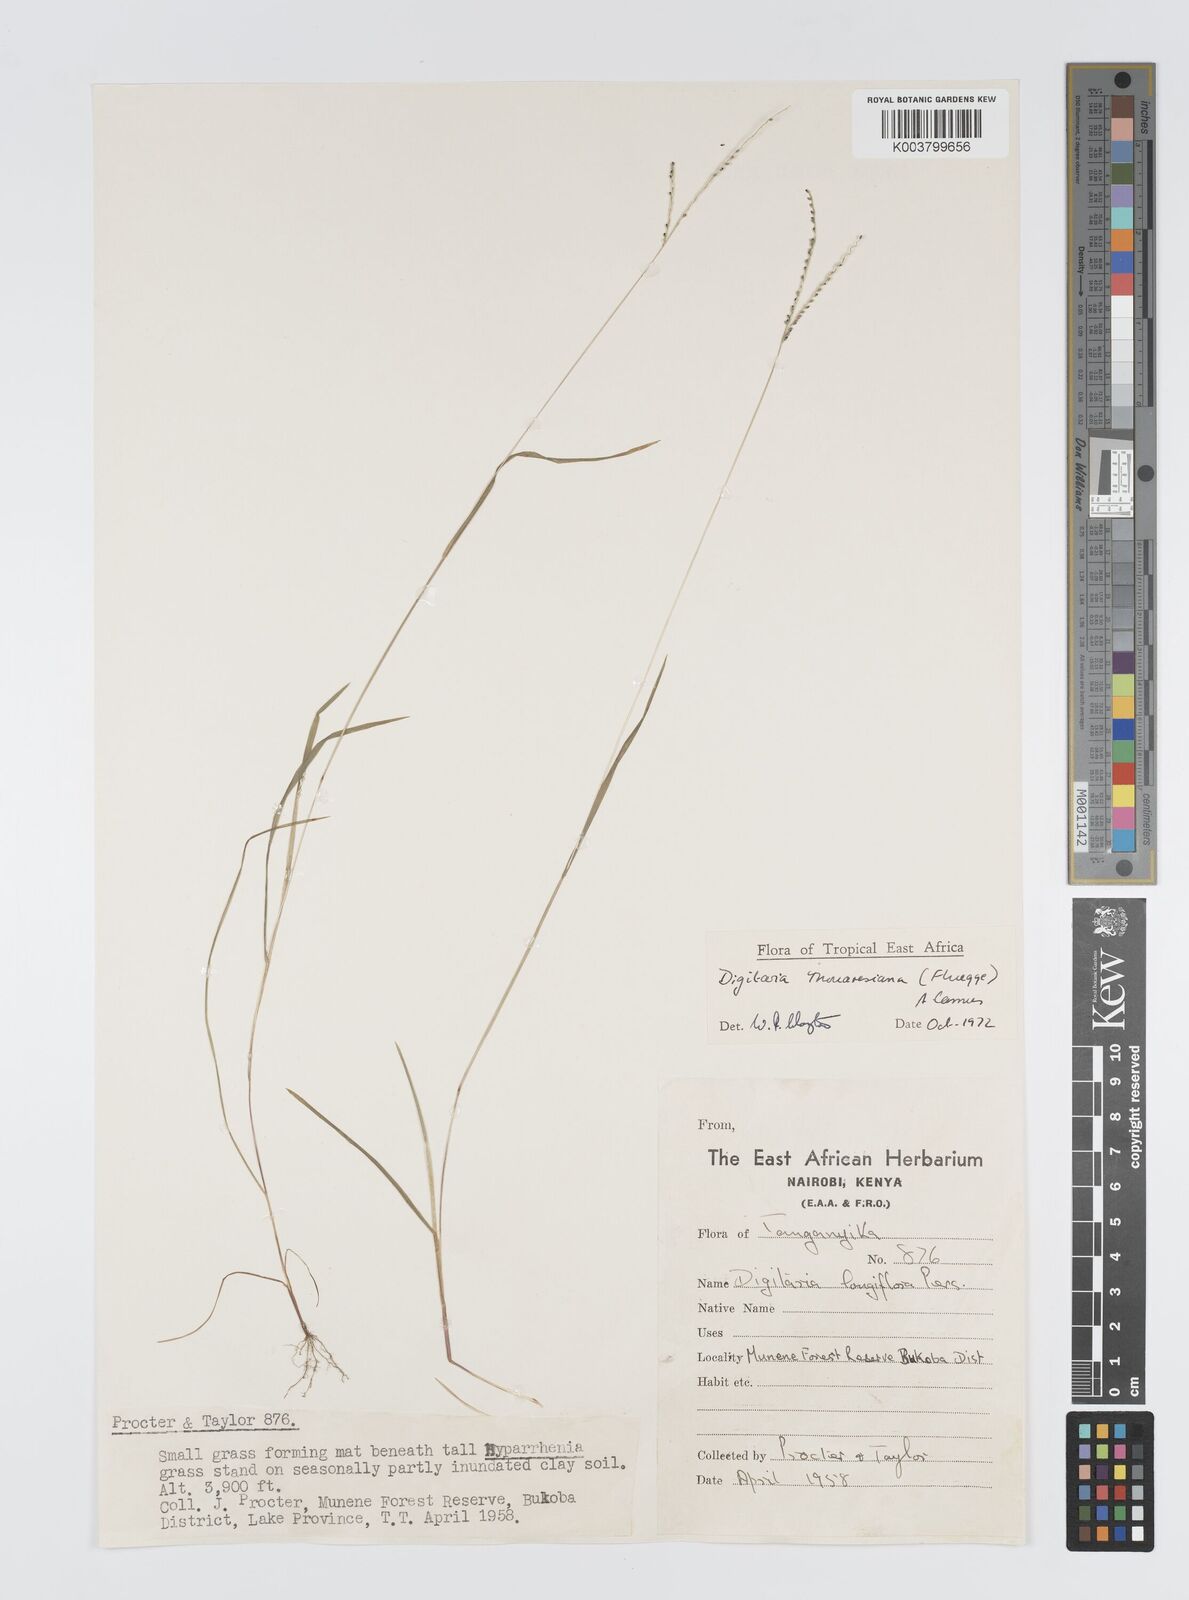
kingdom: Plantae
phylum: Tracheophyta
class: Liliopsida
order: Poales
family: Poaceae
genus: Digitaria
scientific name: Digitaria thouarsiana
